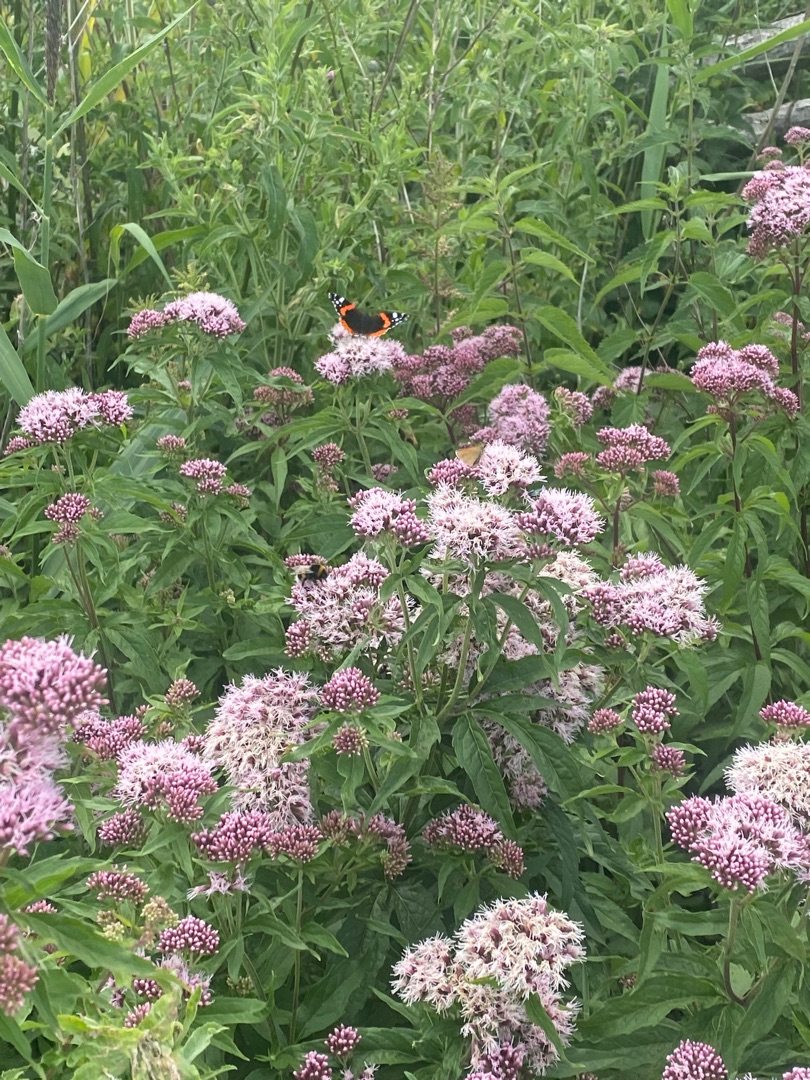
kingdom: Animalia
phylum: Arthropoda
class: Insecta
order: Lepidoptera
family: Nymphalidae
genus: Vanessa
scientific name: Vanessa atalanta
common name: Admiral
